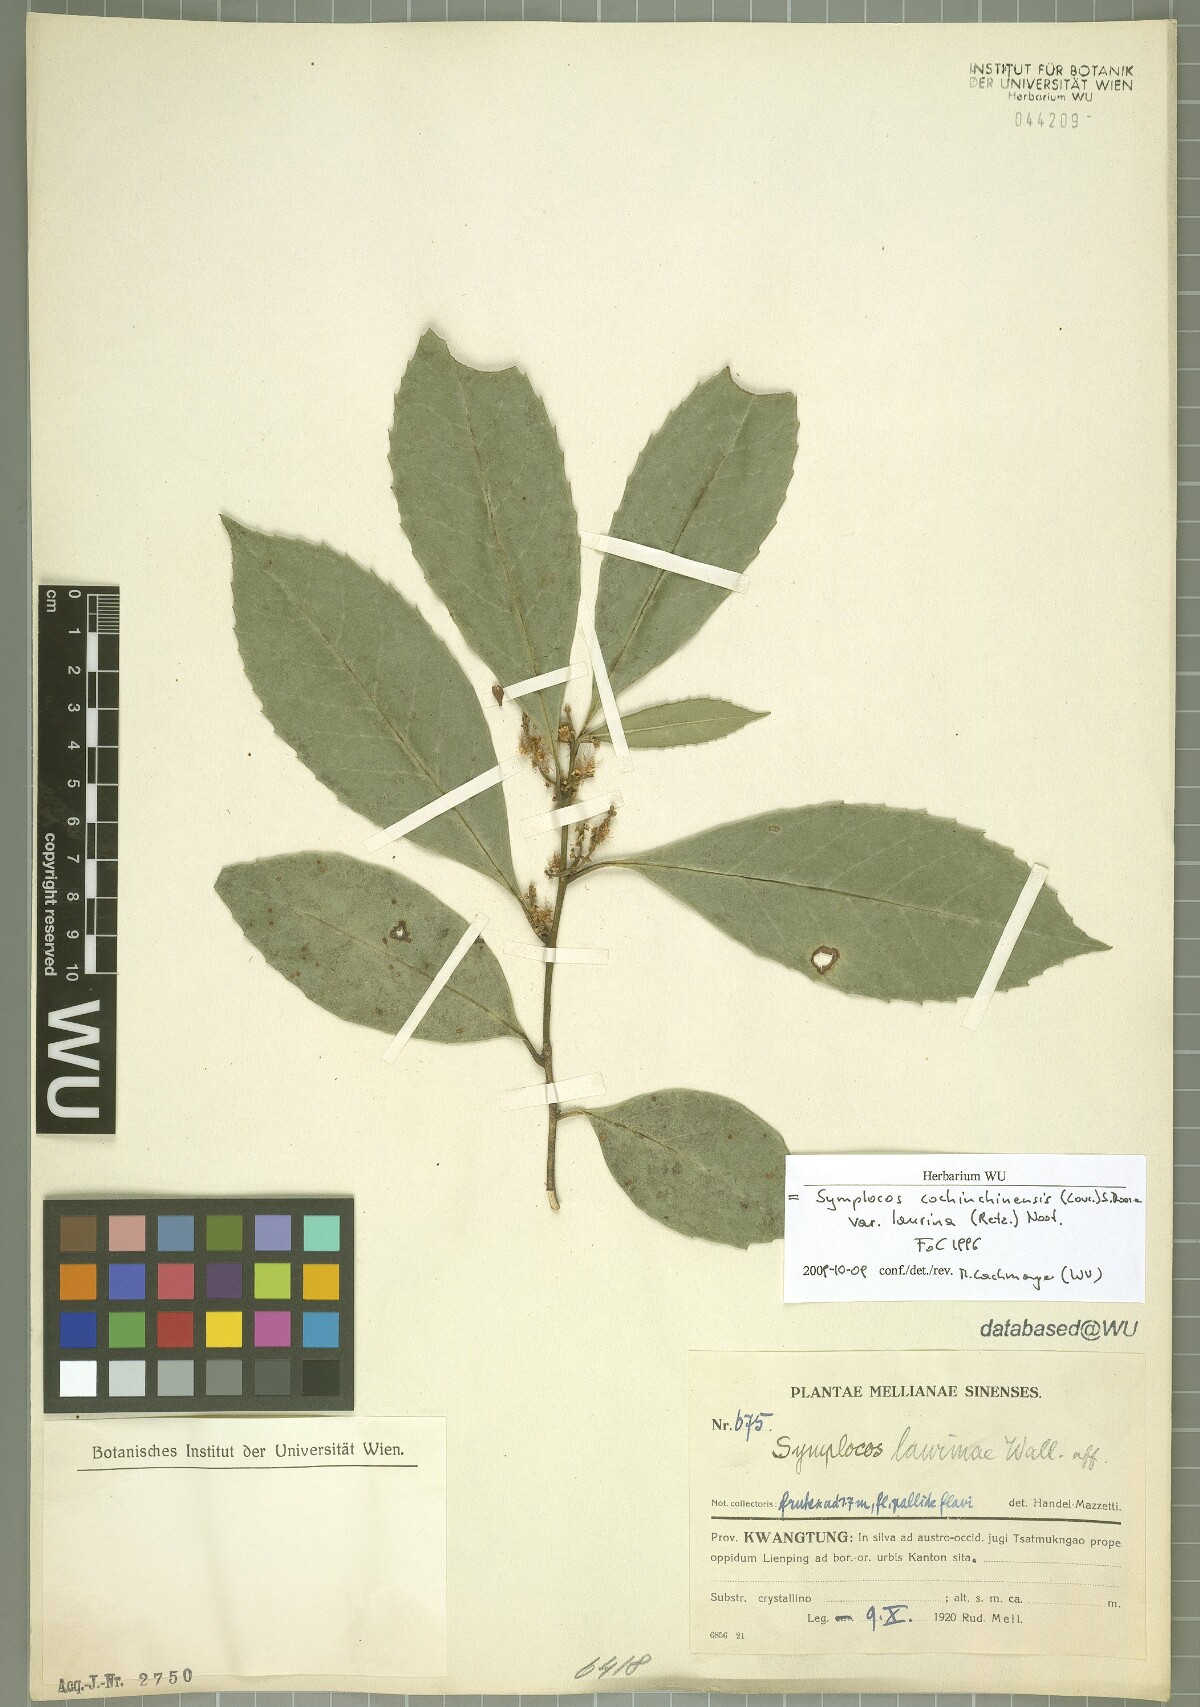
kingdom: Plantae
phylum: Tracheophyta
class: Magnoliopsida
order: Ericales
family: Symplocaceae
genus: Symplocos
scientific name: Symplocos acuminata
